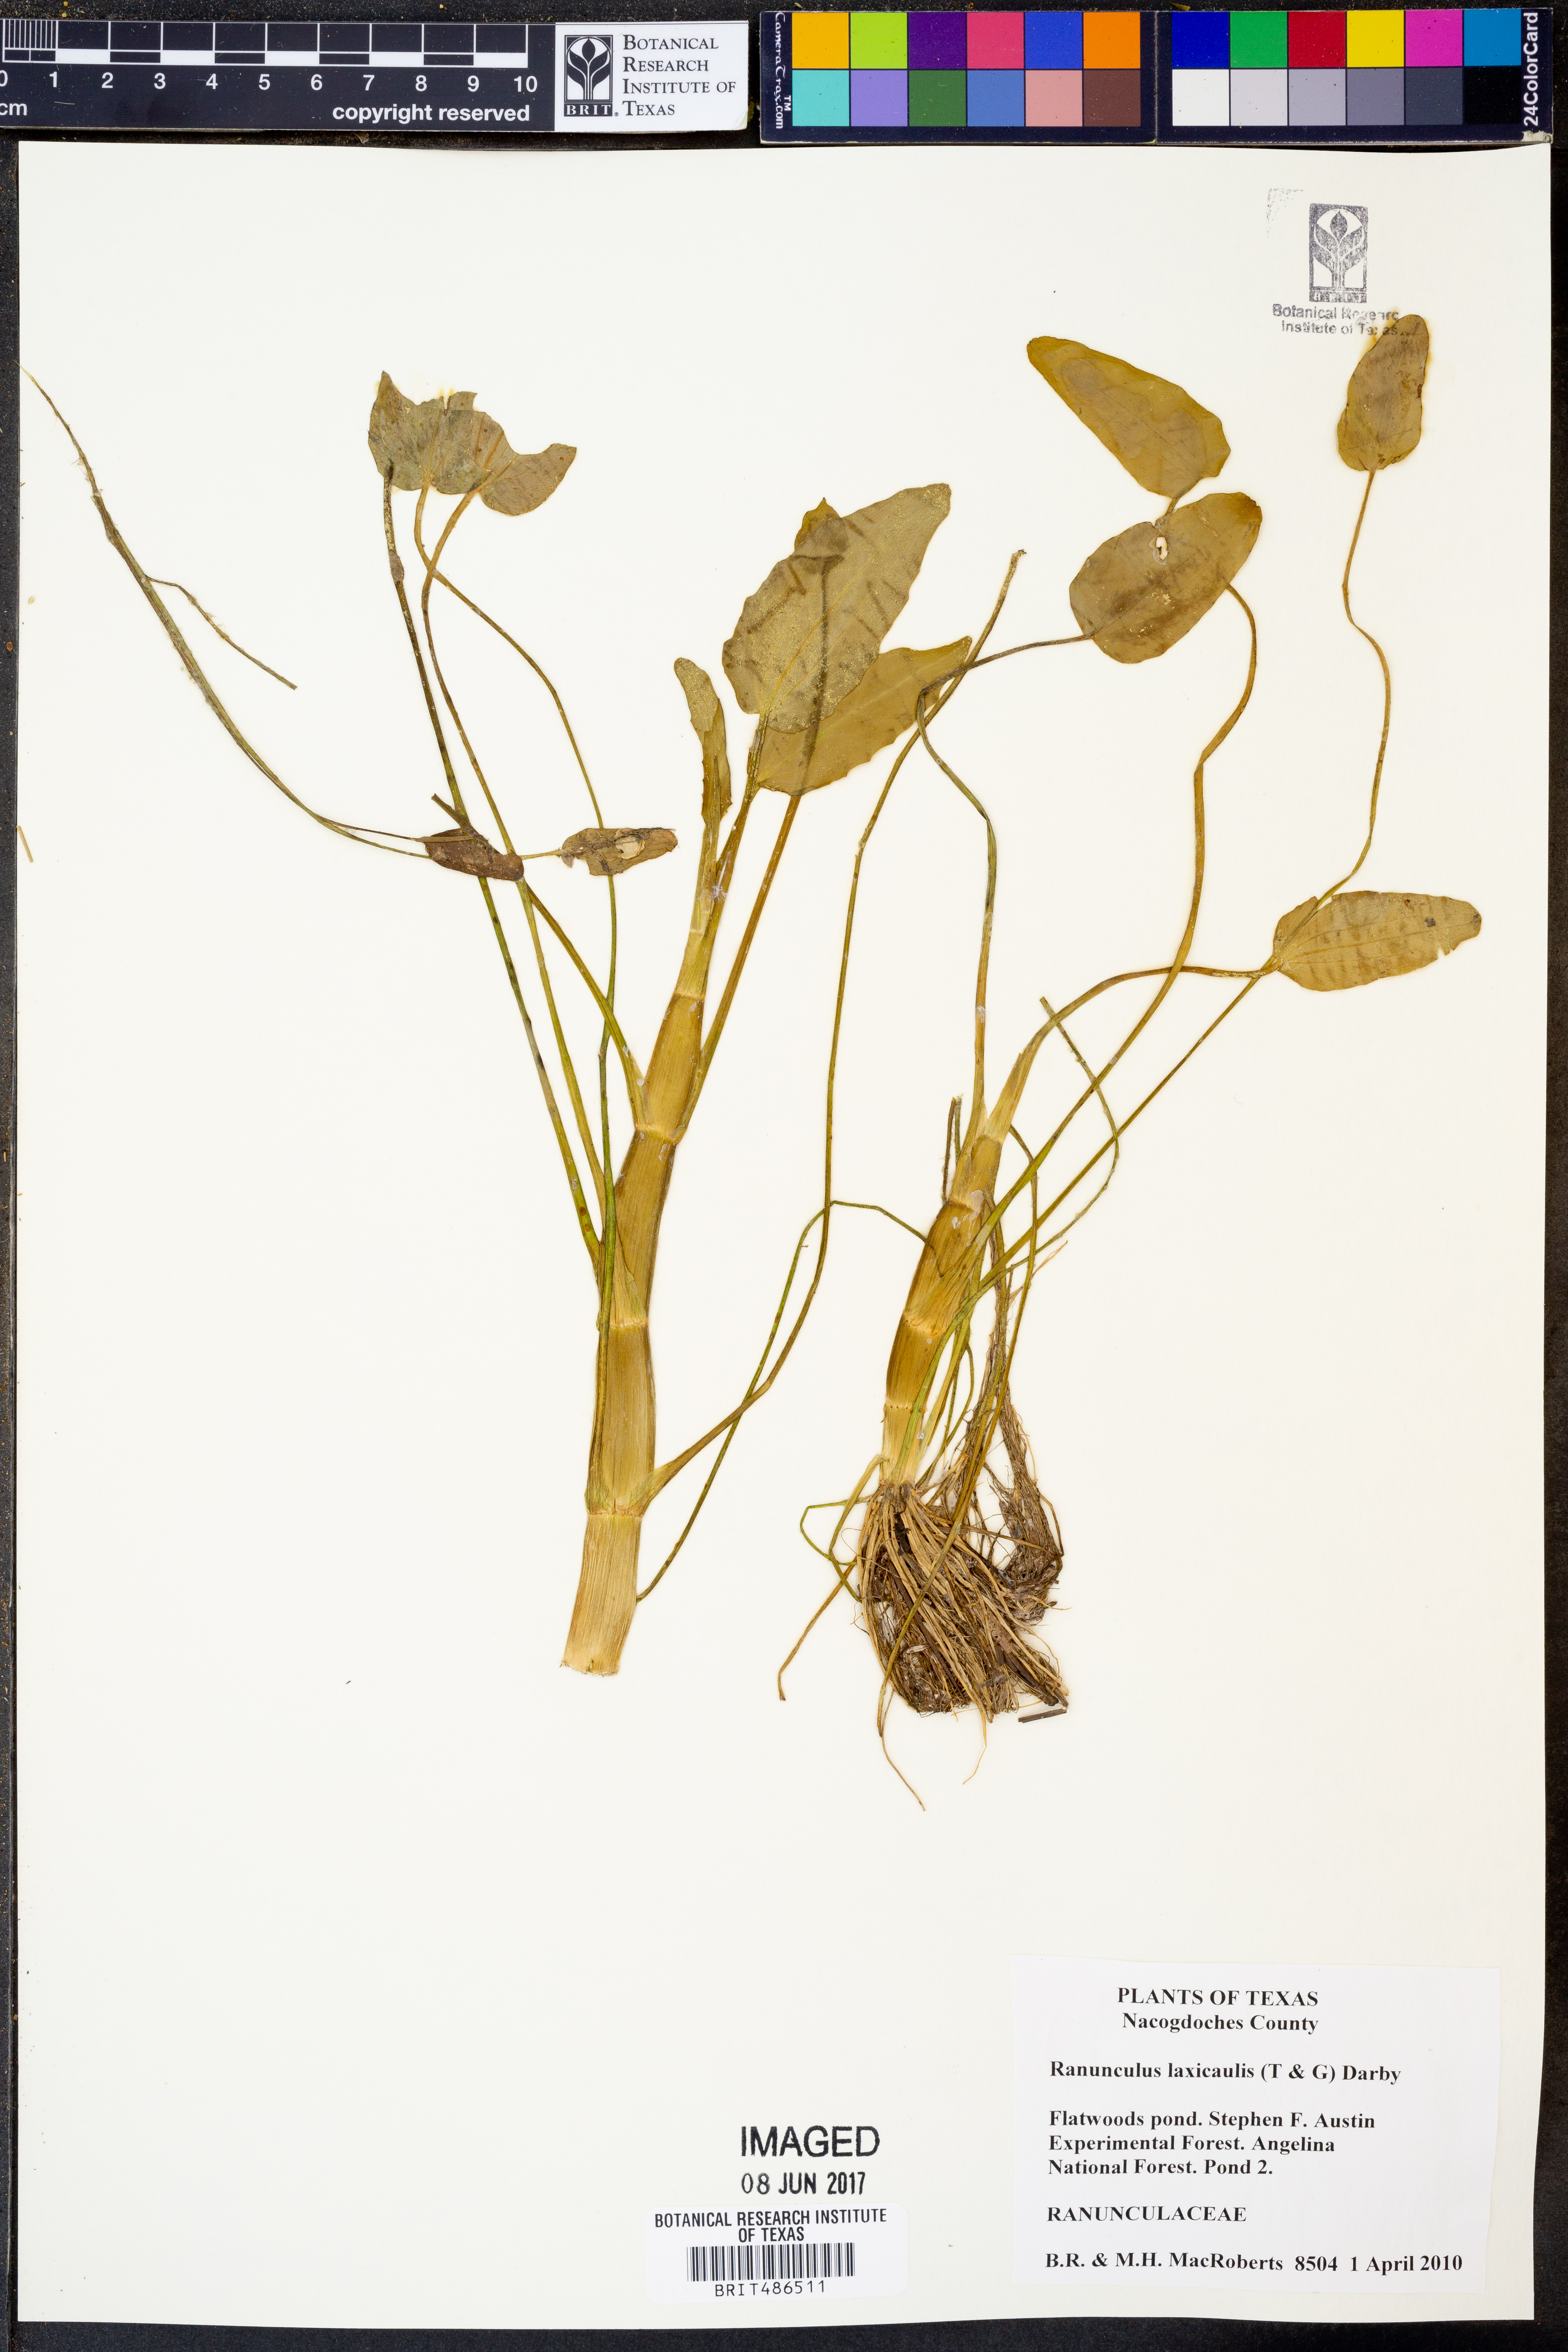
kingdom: Plantae
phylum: Tracheophyta
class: Magnoliopsida
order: Ericales
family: Sarraceniaceae
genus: Sarracenia
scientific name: Sarracenia alata
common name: Yellow trumpets
